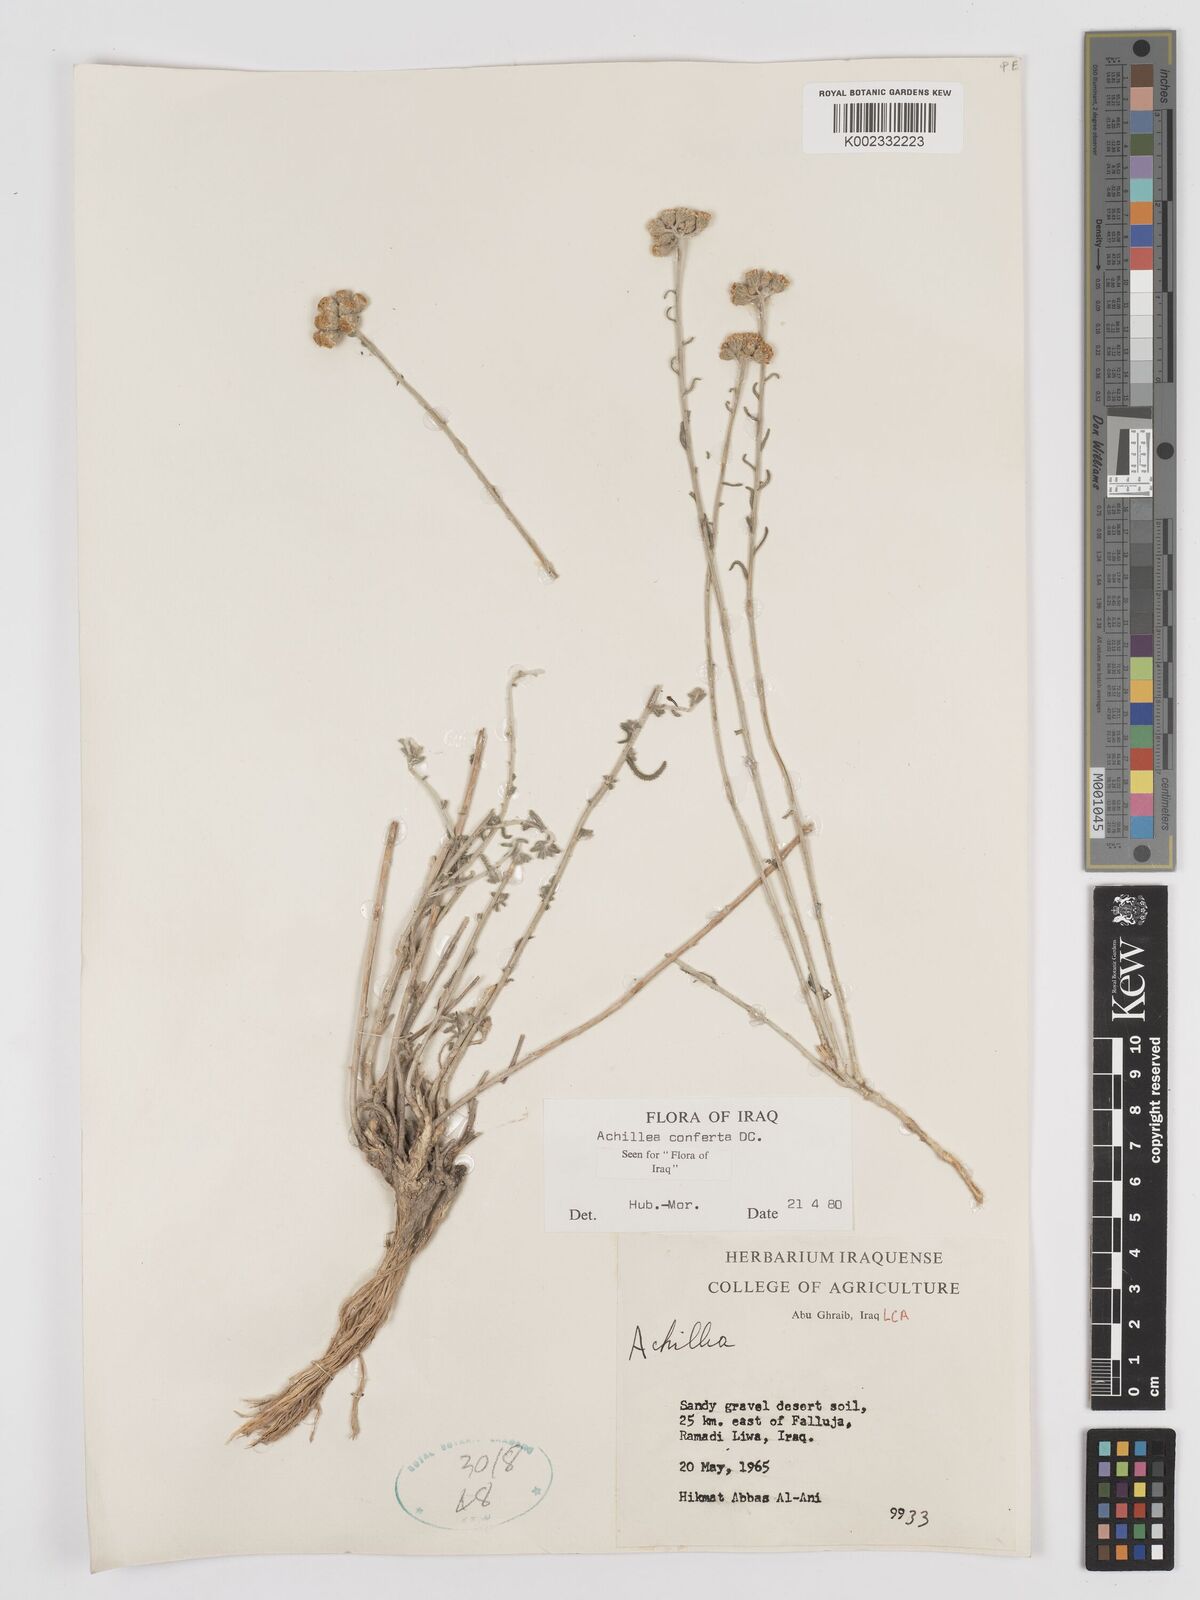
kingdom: Plantae
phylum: Tracheophyta
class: Magnoliopsida
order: Asterales
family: Asteraceae
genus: Achillea
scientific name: Achillea conferta
